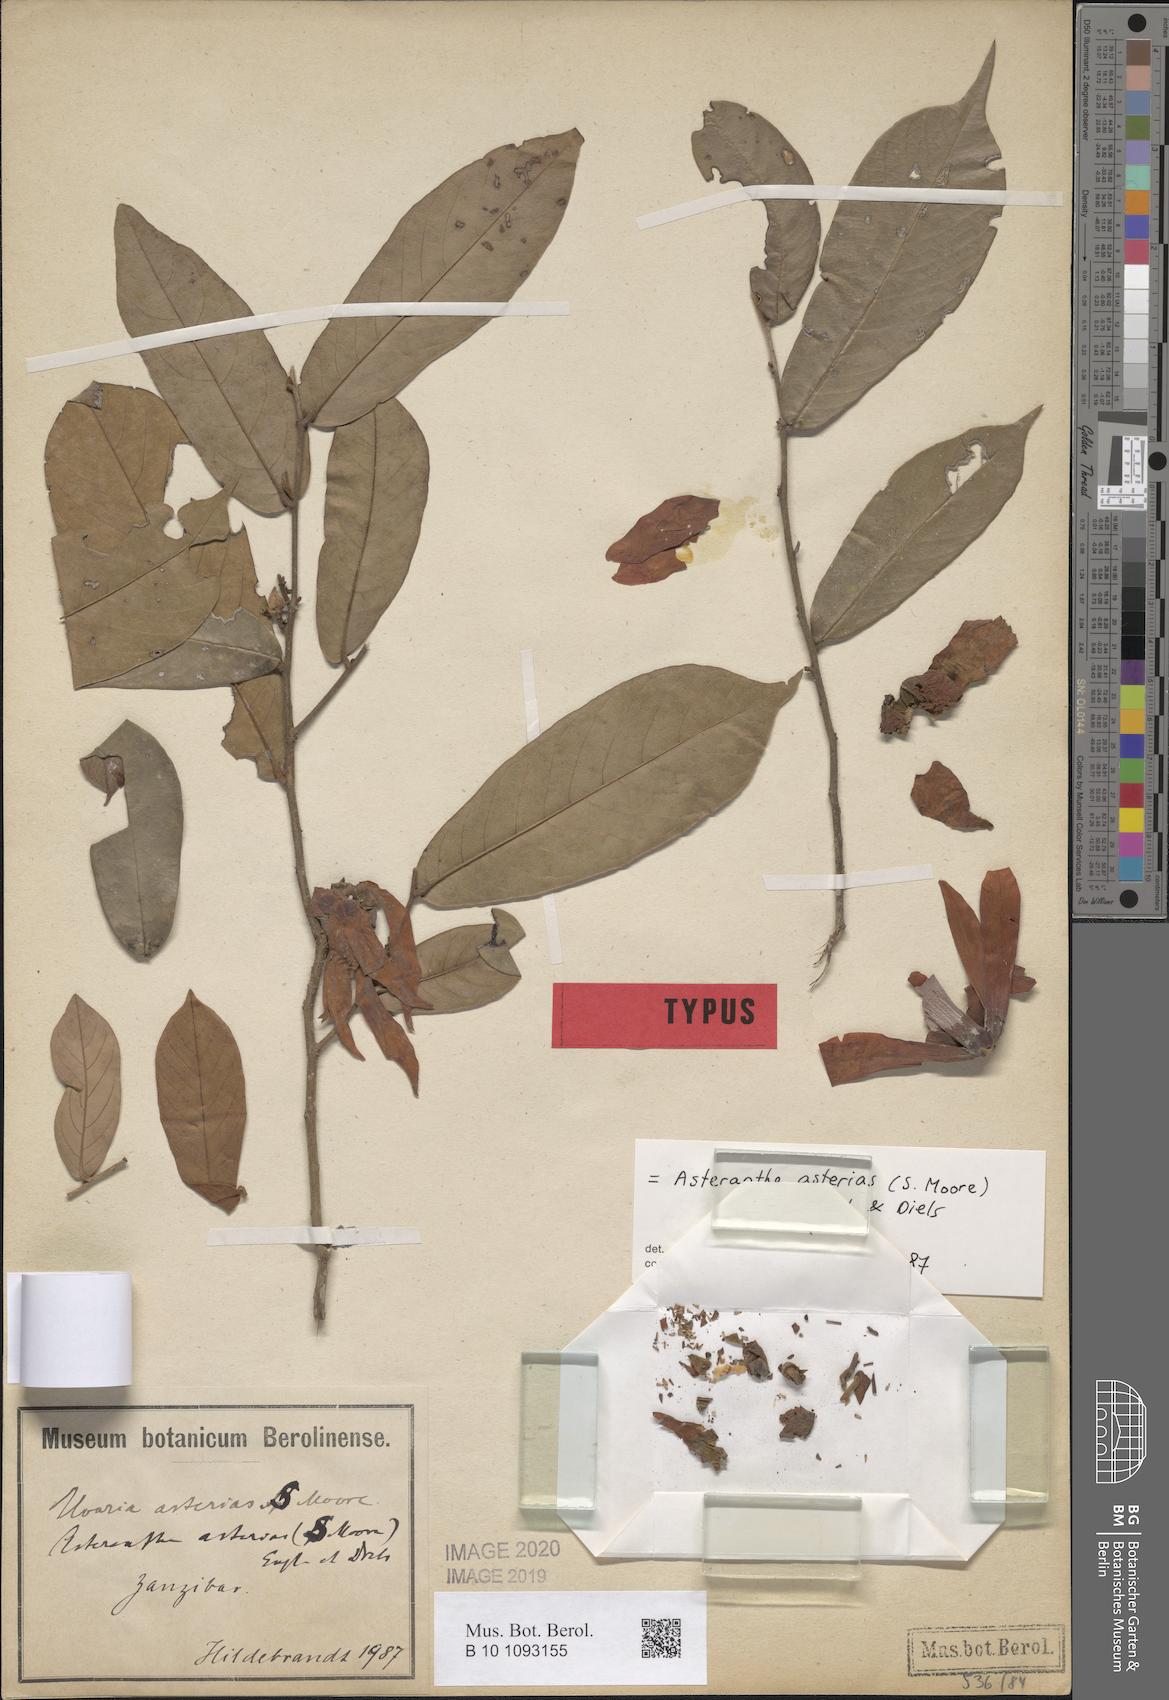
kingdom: Plantae
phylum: Tracheophyta
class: Magnoliopsida
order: Magnoliales
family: Annonaceae
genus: Asteranthe
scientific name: Asteranthe asterias
